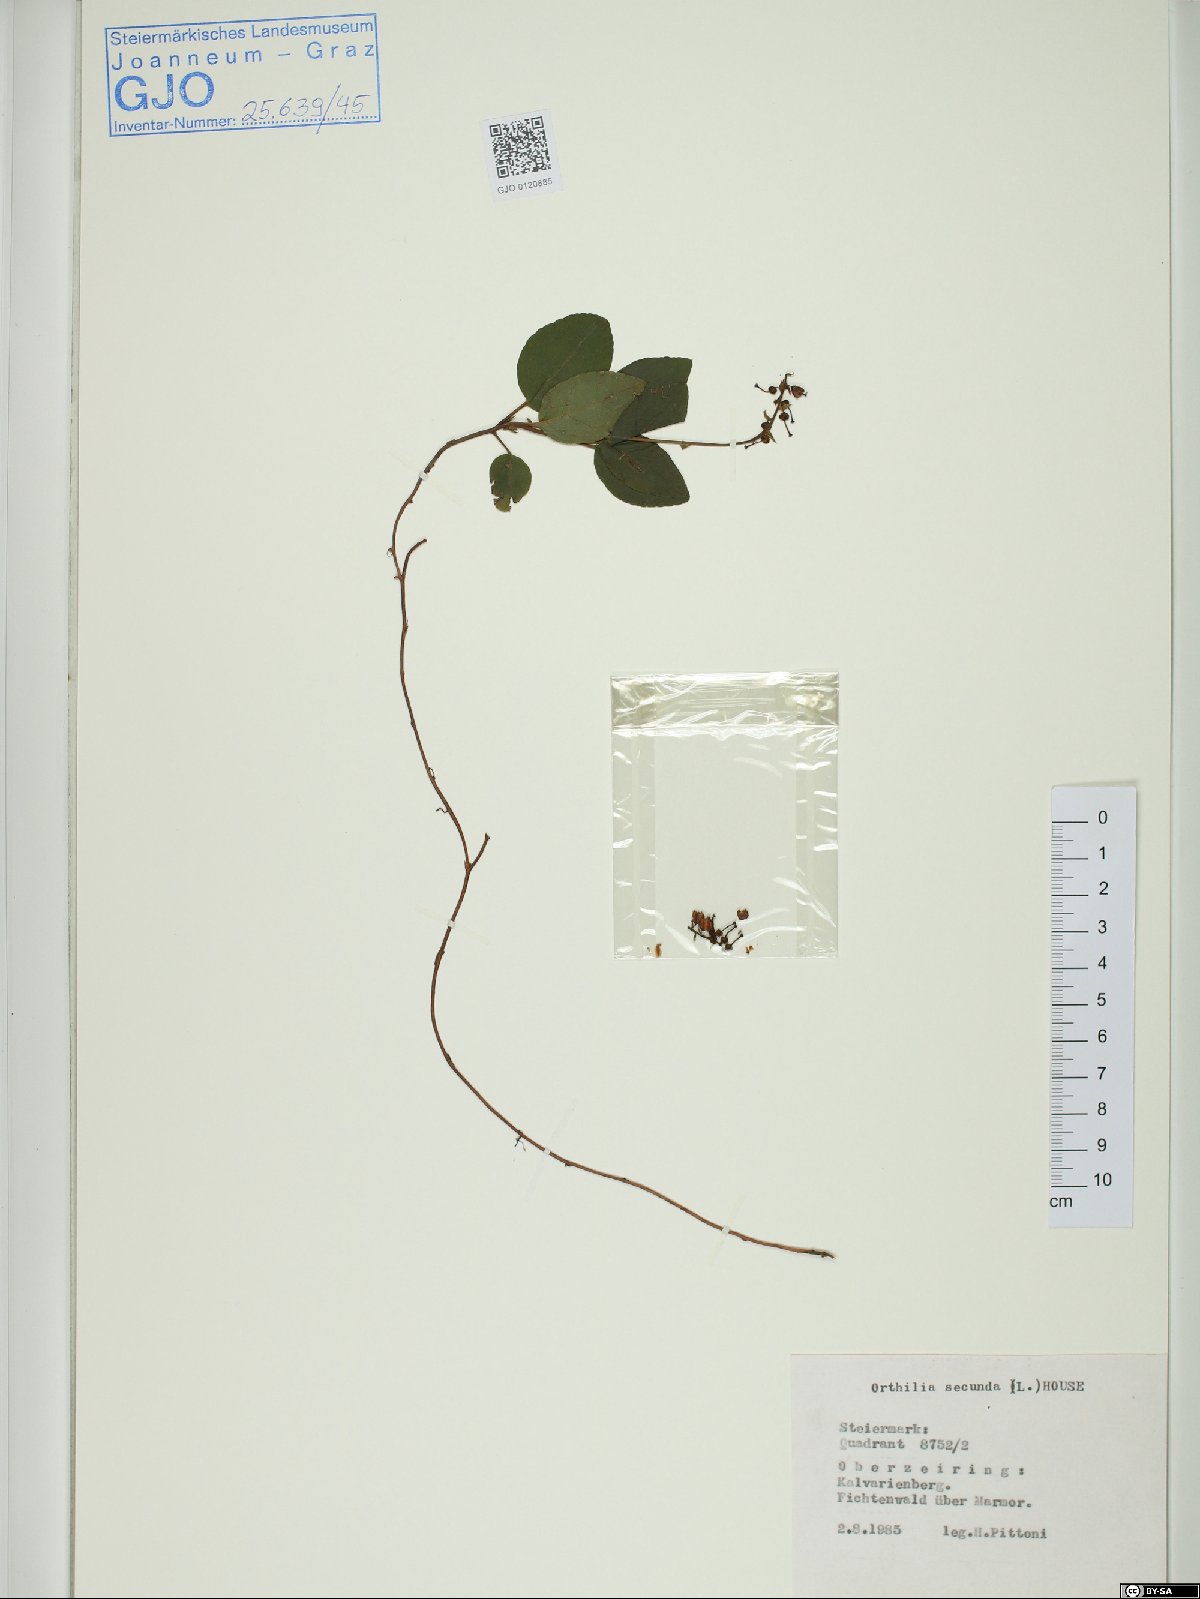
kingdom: Plantae
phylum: Tracheophyta
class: Magnoliopsida
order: Ericales
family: Ericaceae
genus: Orthilia
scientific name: Orthilia secunda
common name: One-sided orthilia
